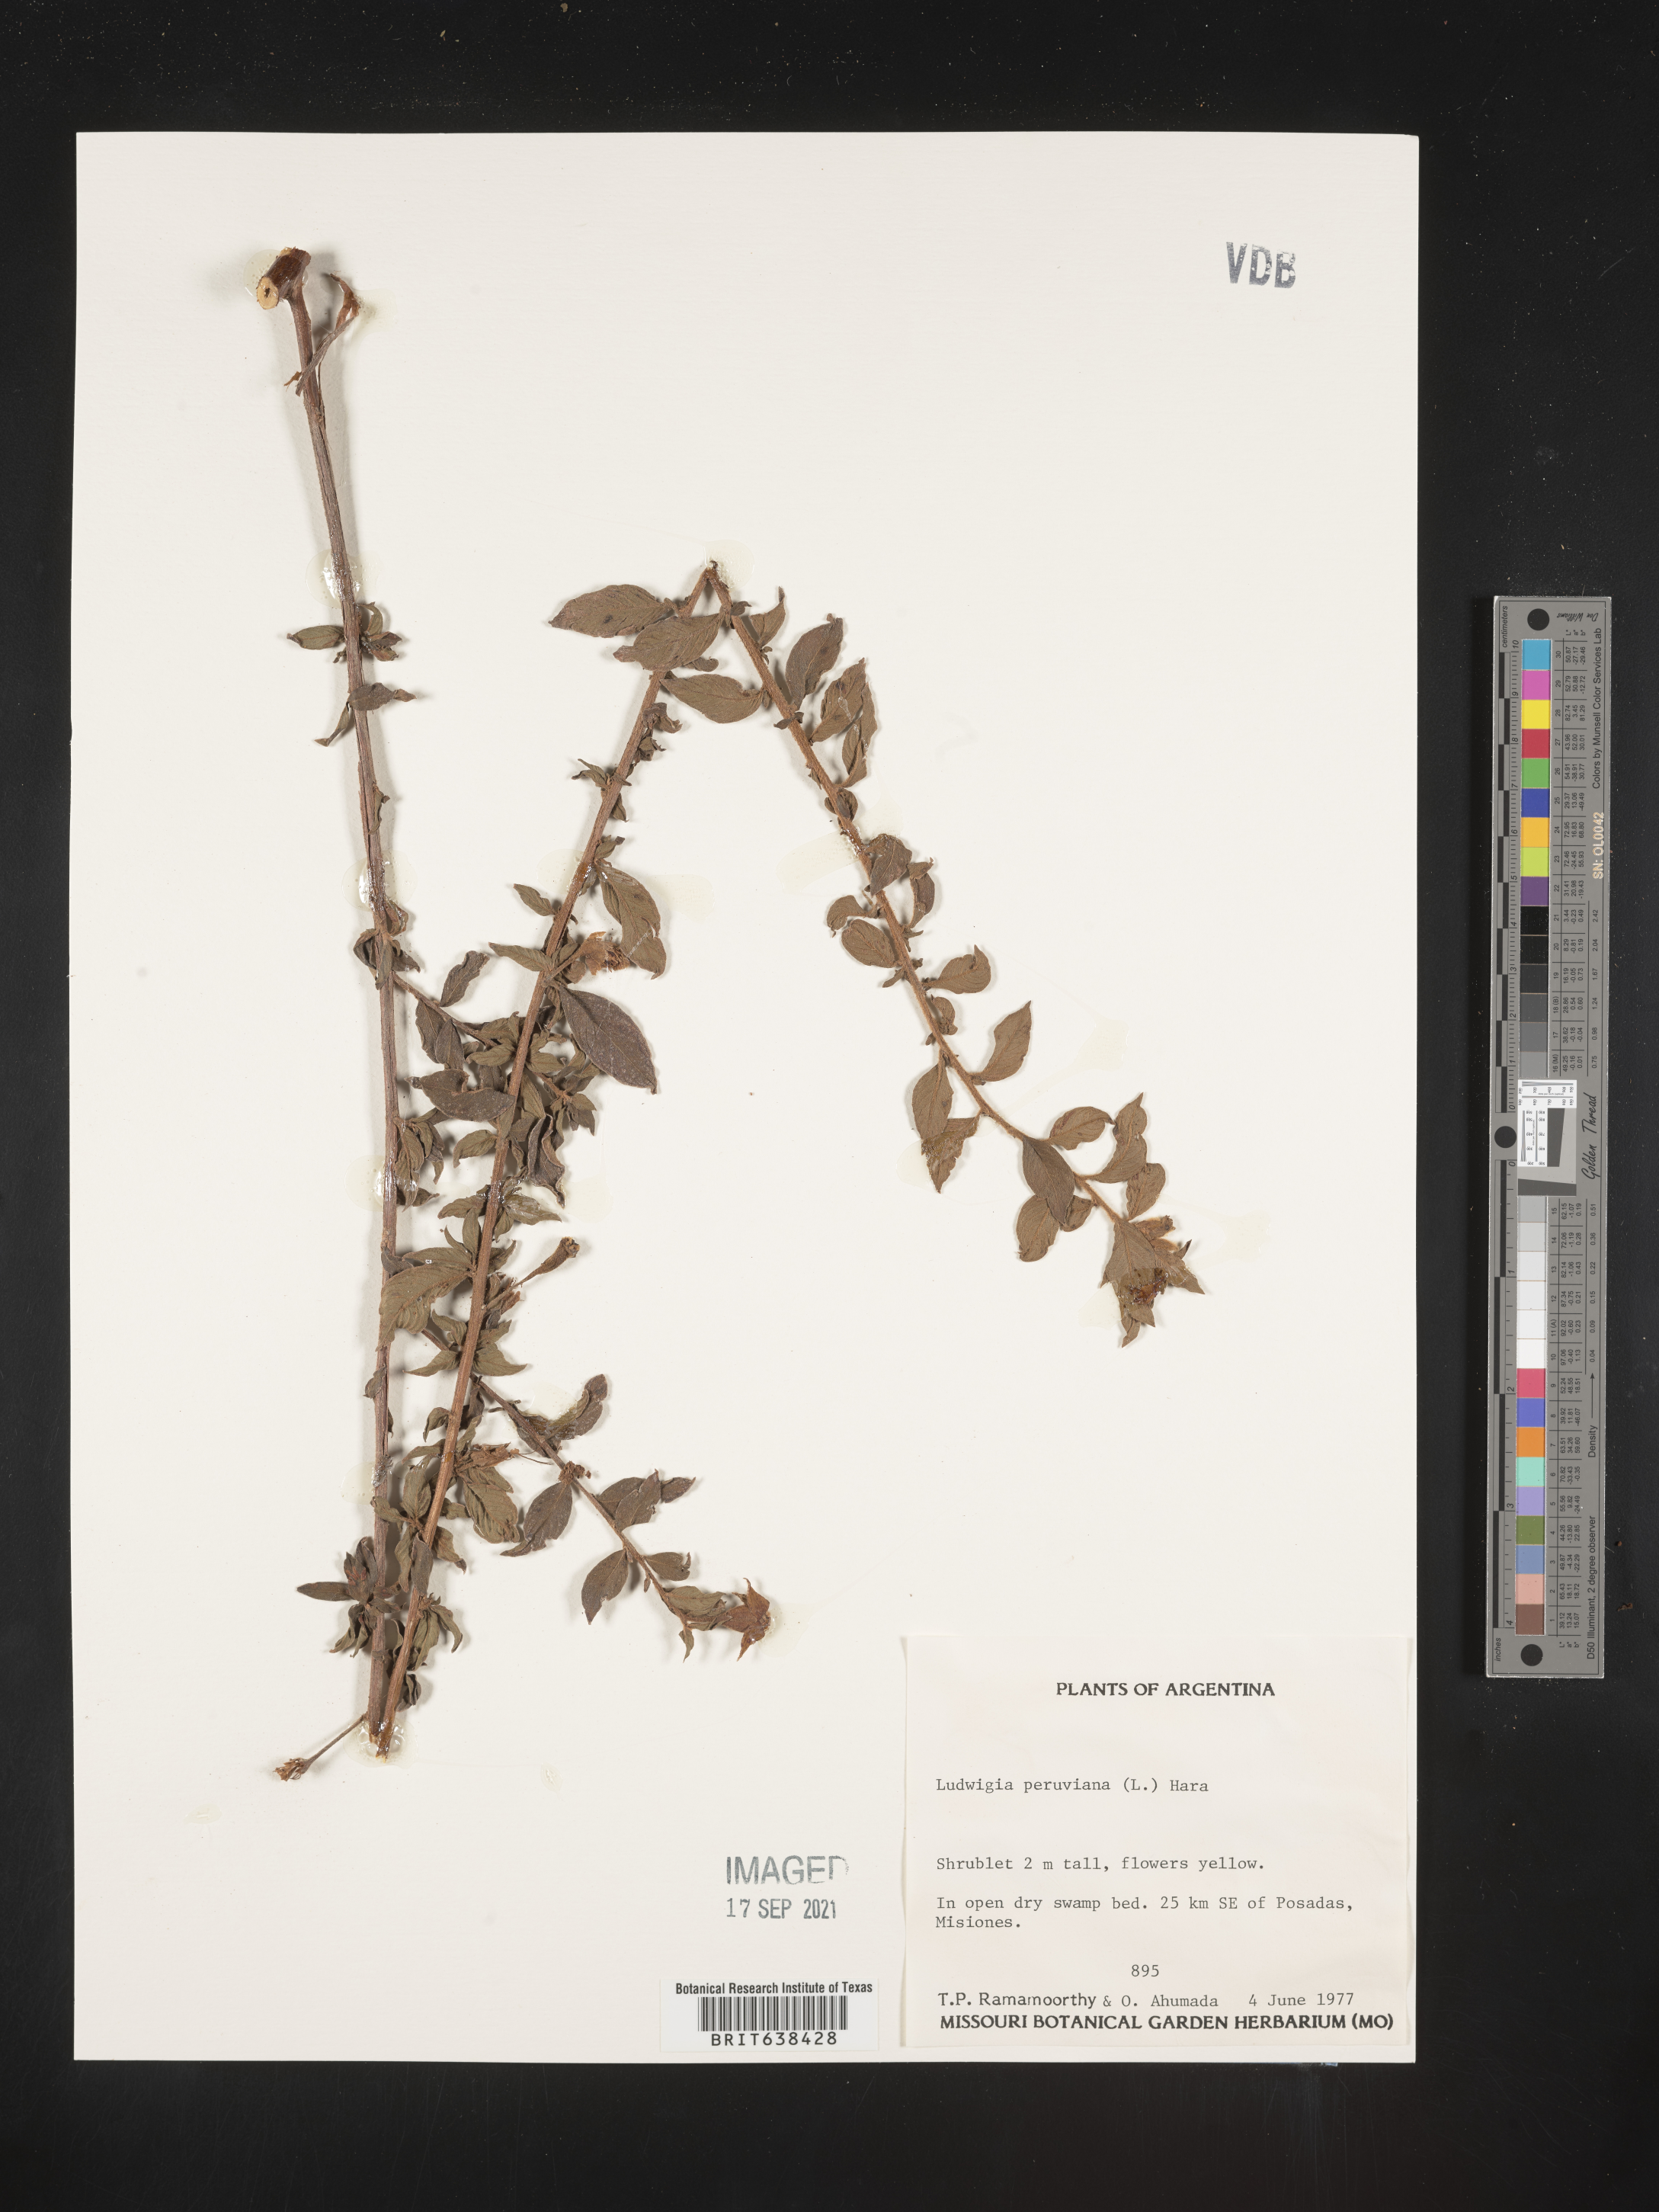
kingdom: Plantae
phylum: Tracheophyta
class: Magnoliopsida
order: Myrtales
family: Onagraceae
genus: Ludwigia
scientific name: Ludwigia
